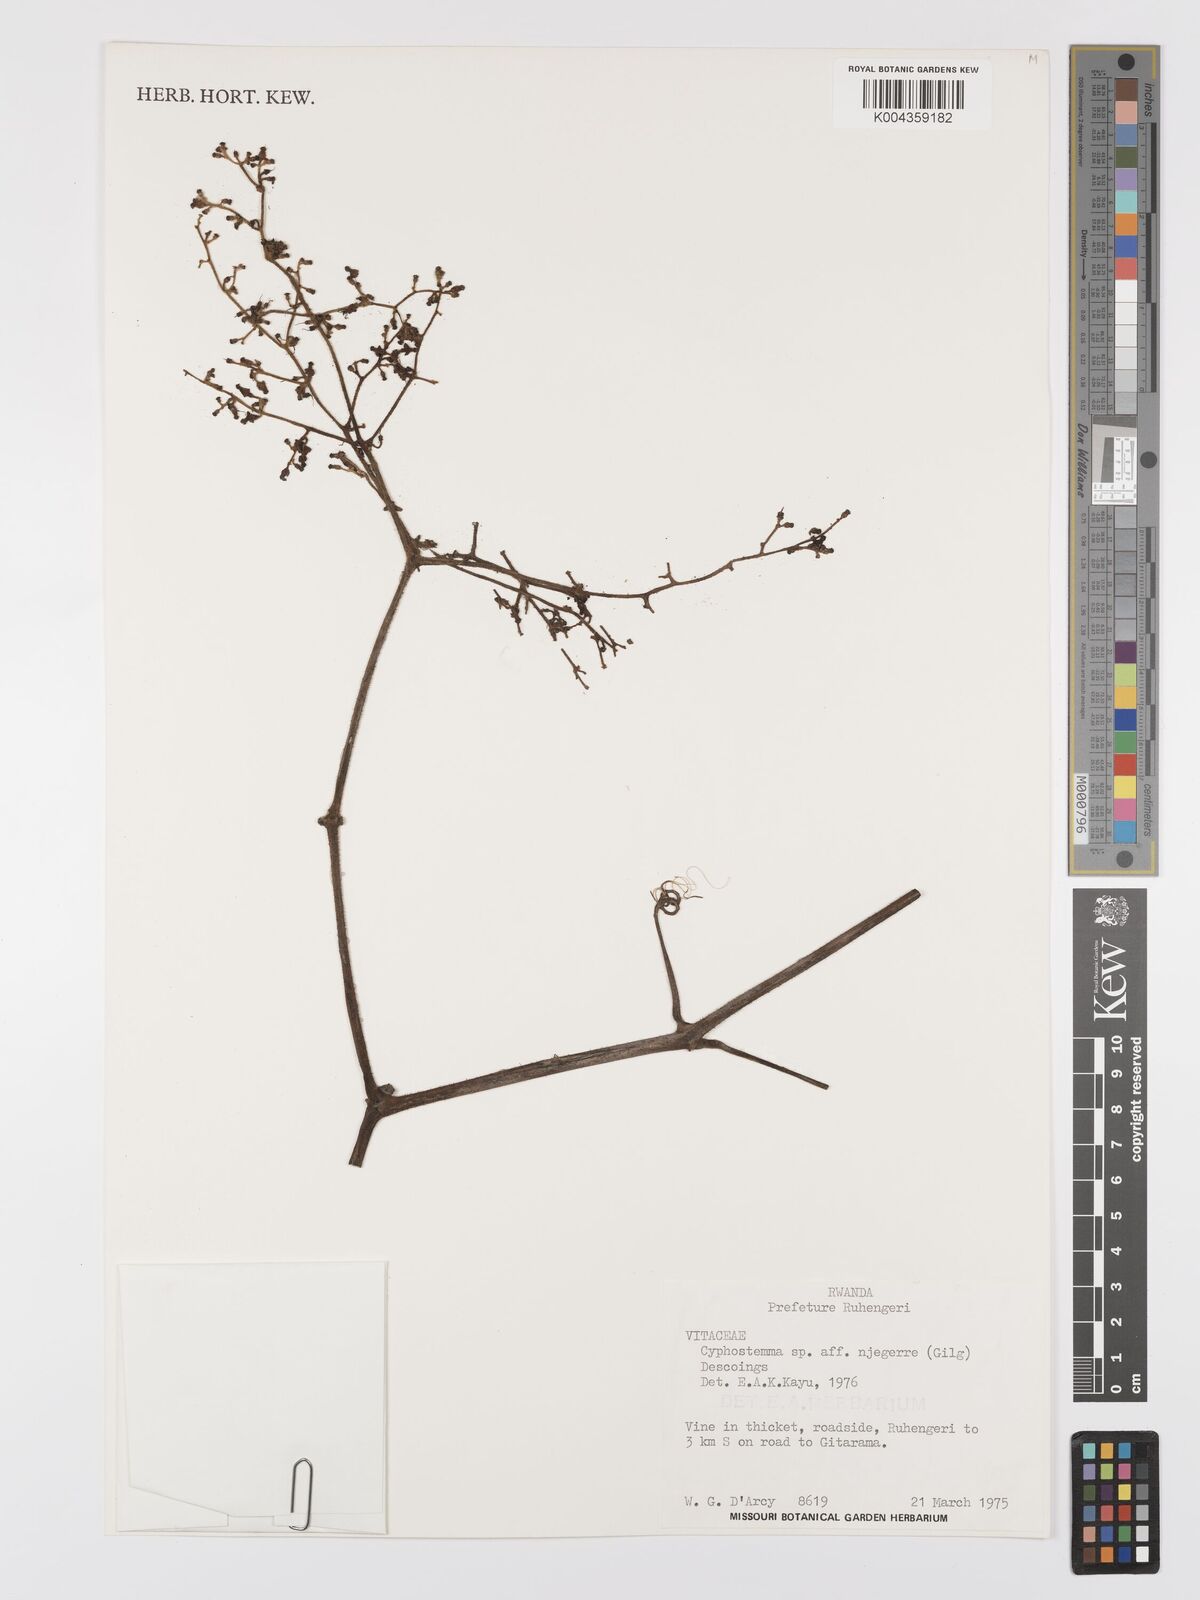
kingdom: Plantae
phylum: Tracheophyta
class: Magnoliopsida
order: Vitales
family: Vitaceae
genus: Cyphostemma
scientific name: Cyphostemma njegerre
